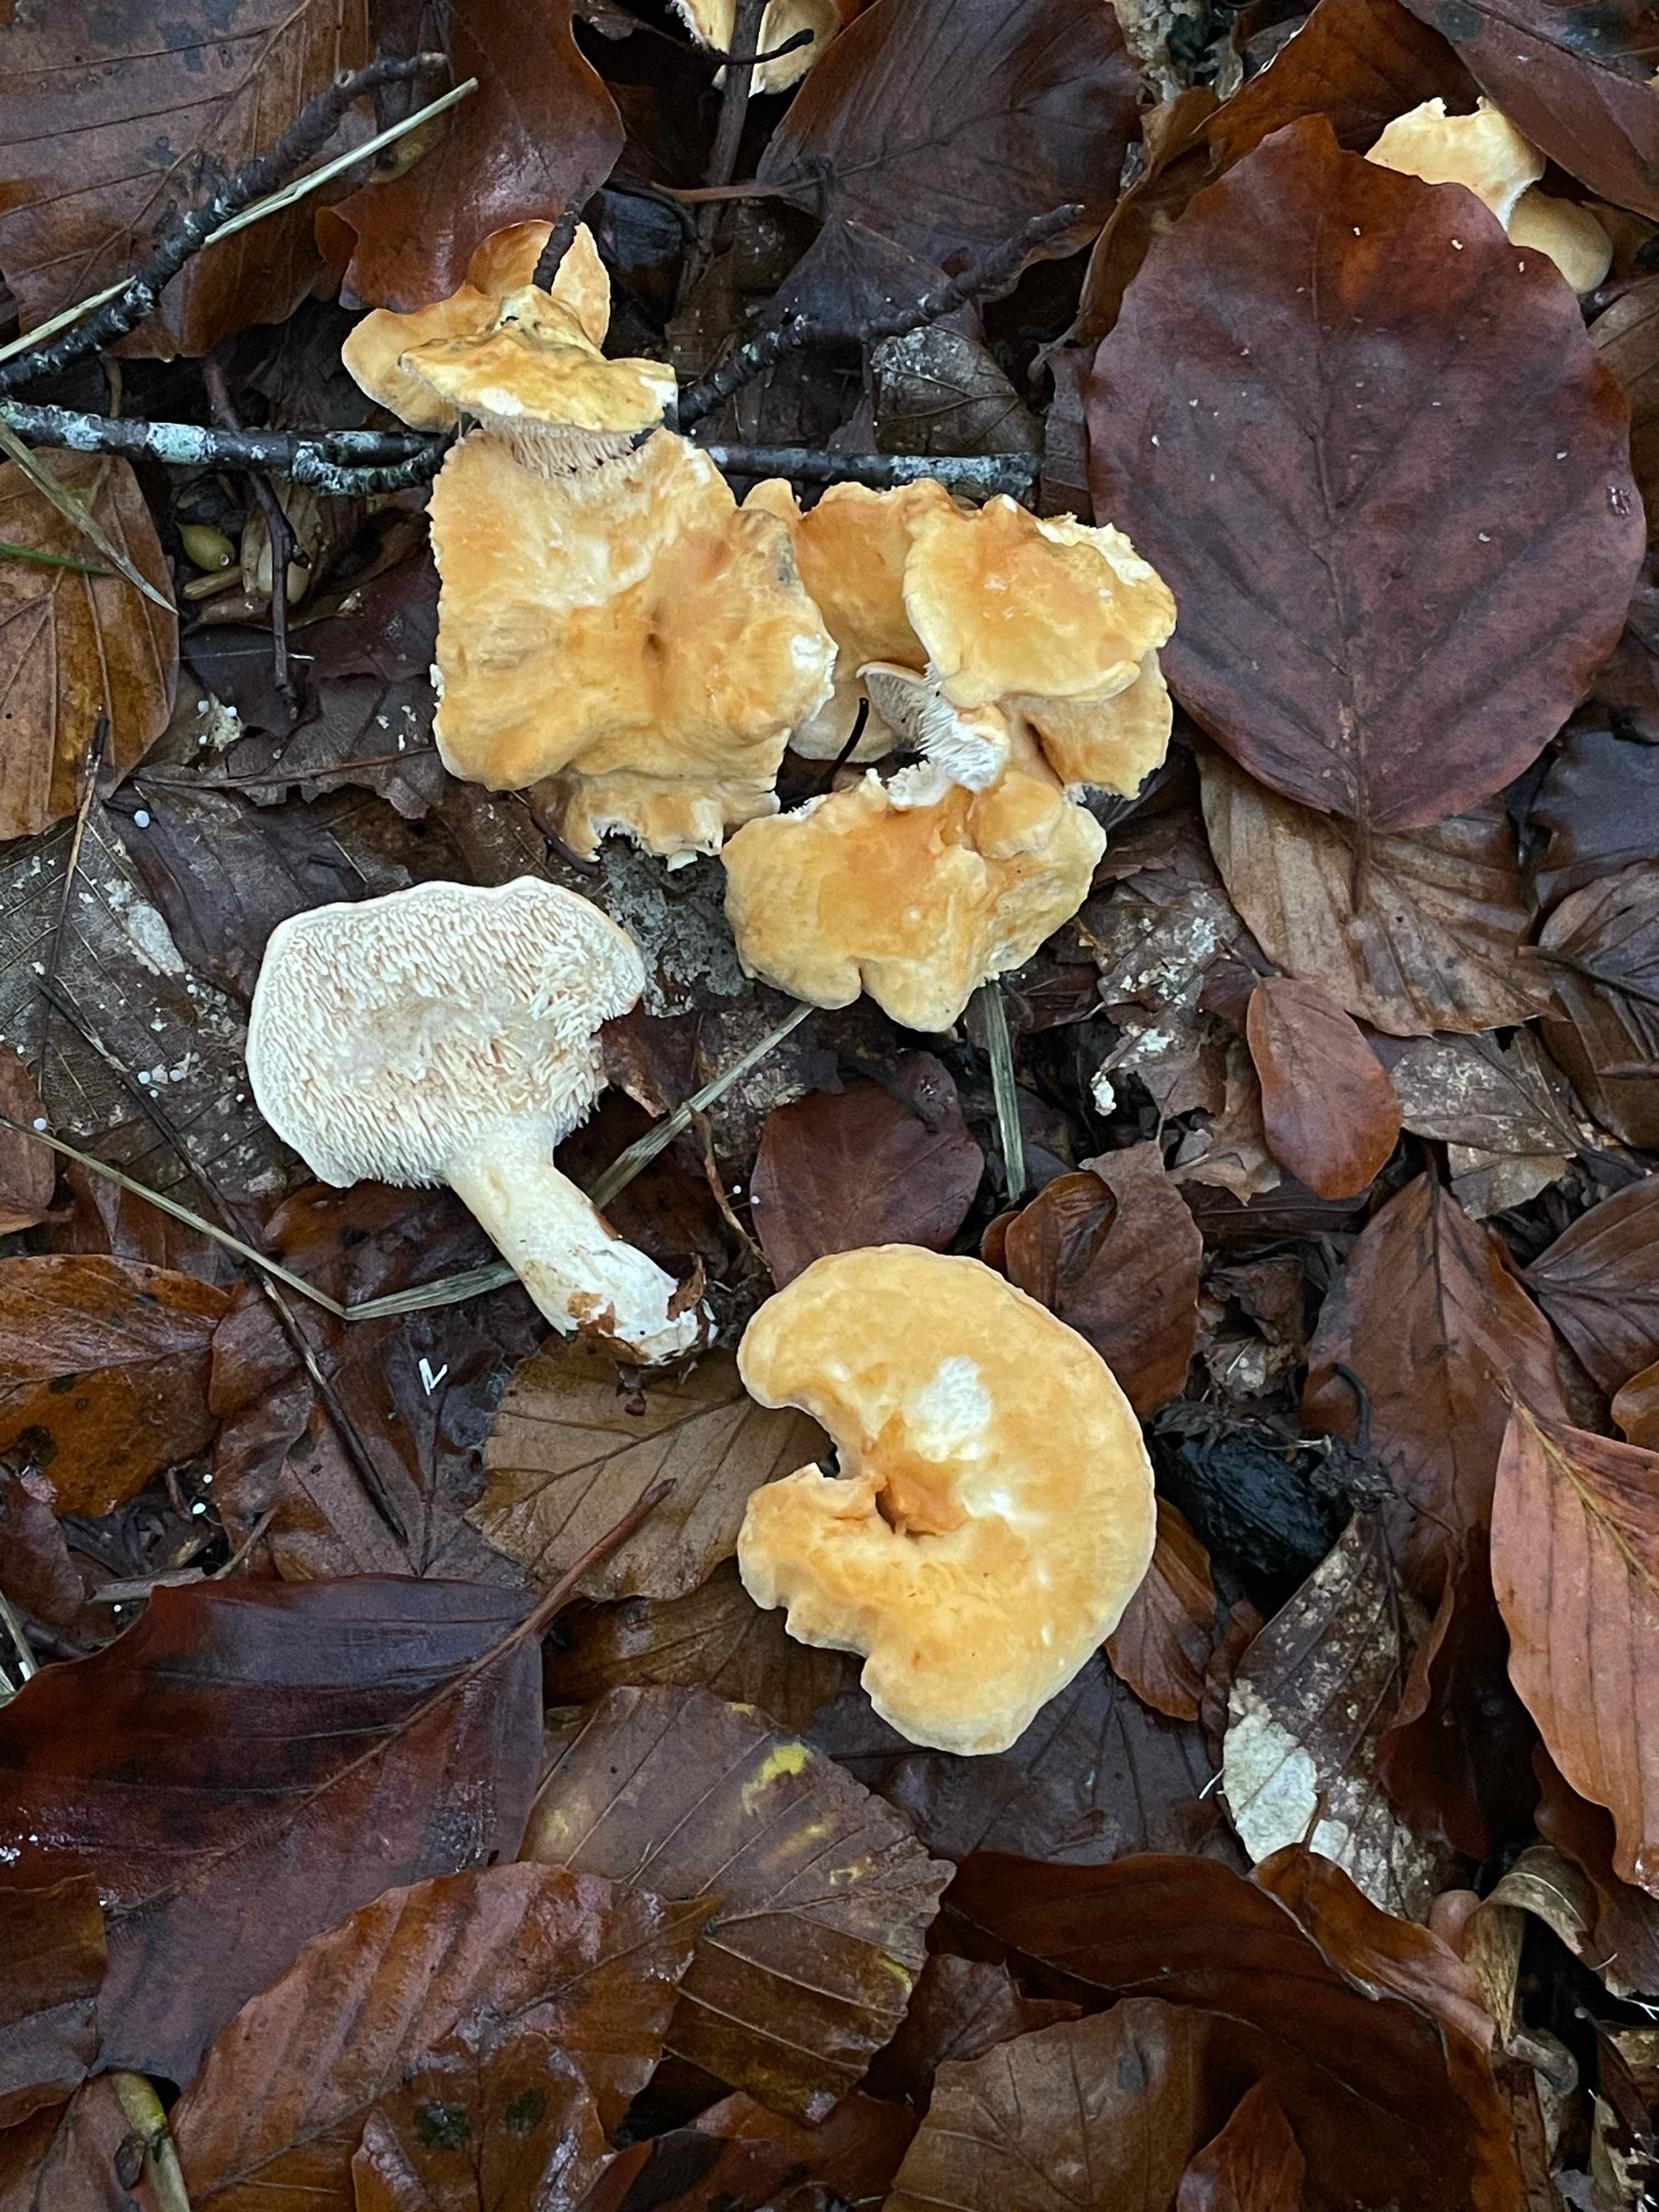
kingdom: Fungi
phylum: Basidiomycota
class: Agaricomycetes
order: Cantharellales
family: Hydnaceae
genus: Hydnum
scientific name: Hydnum
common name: pigsvamp
